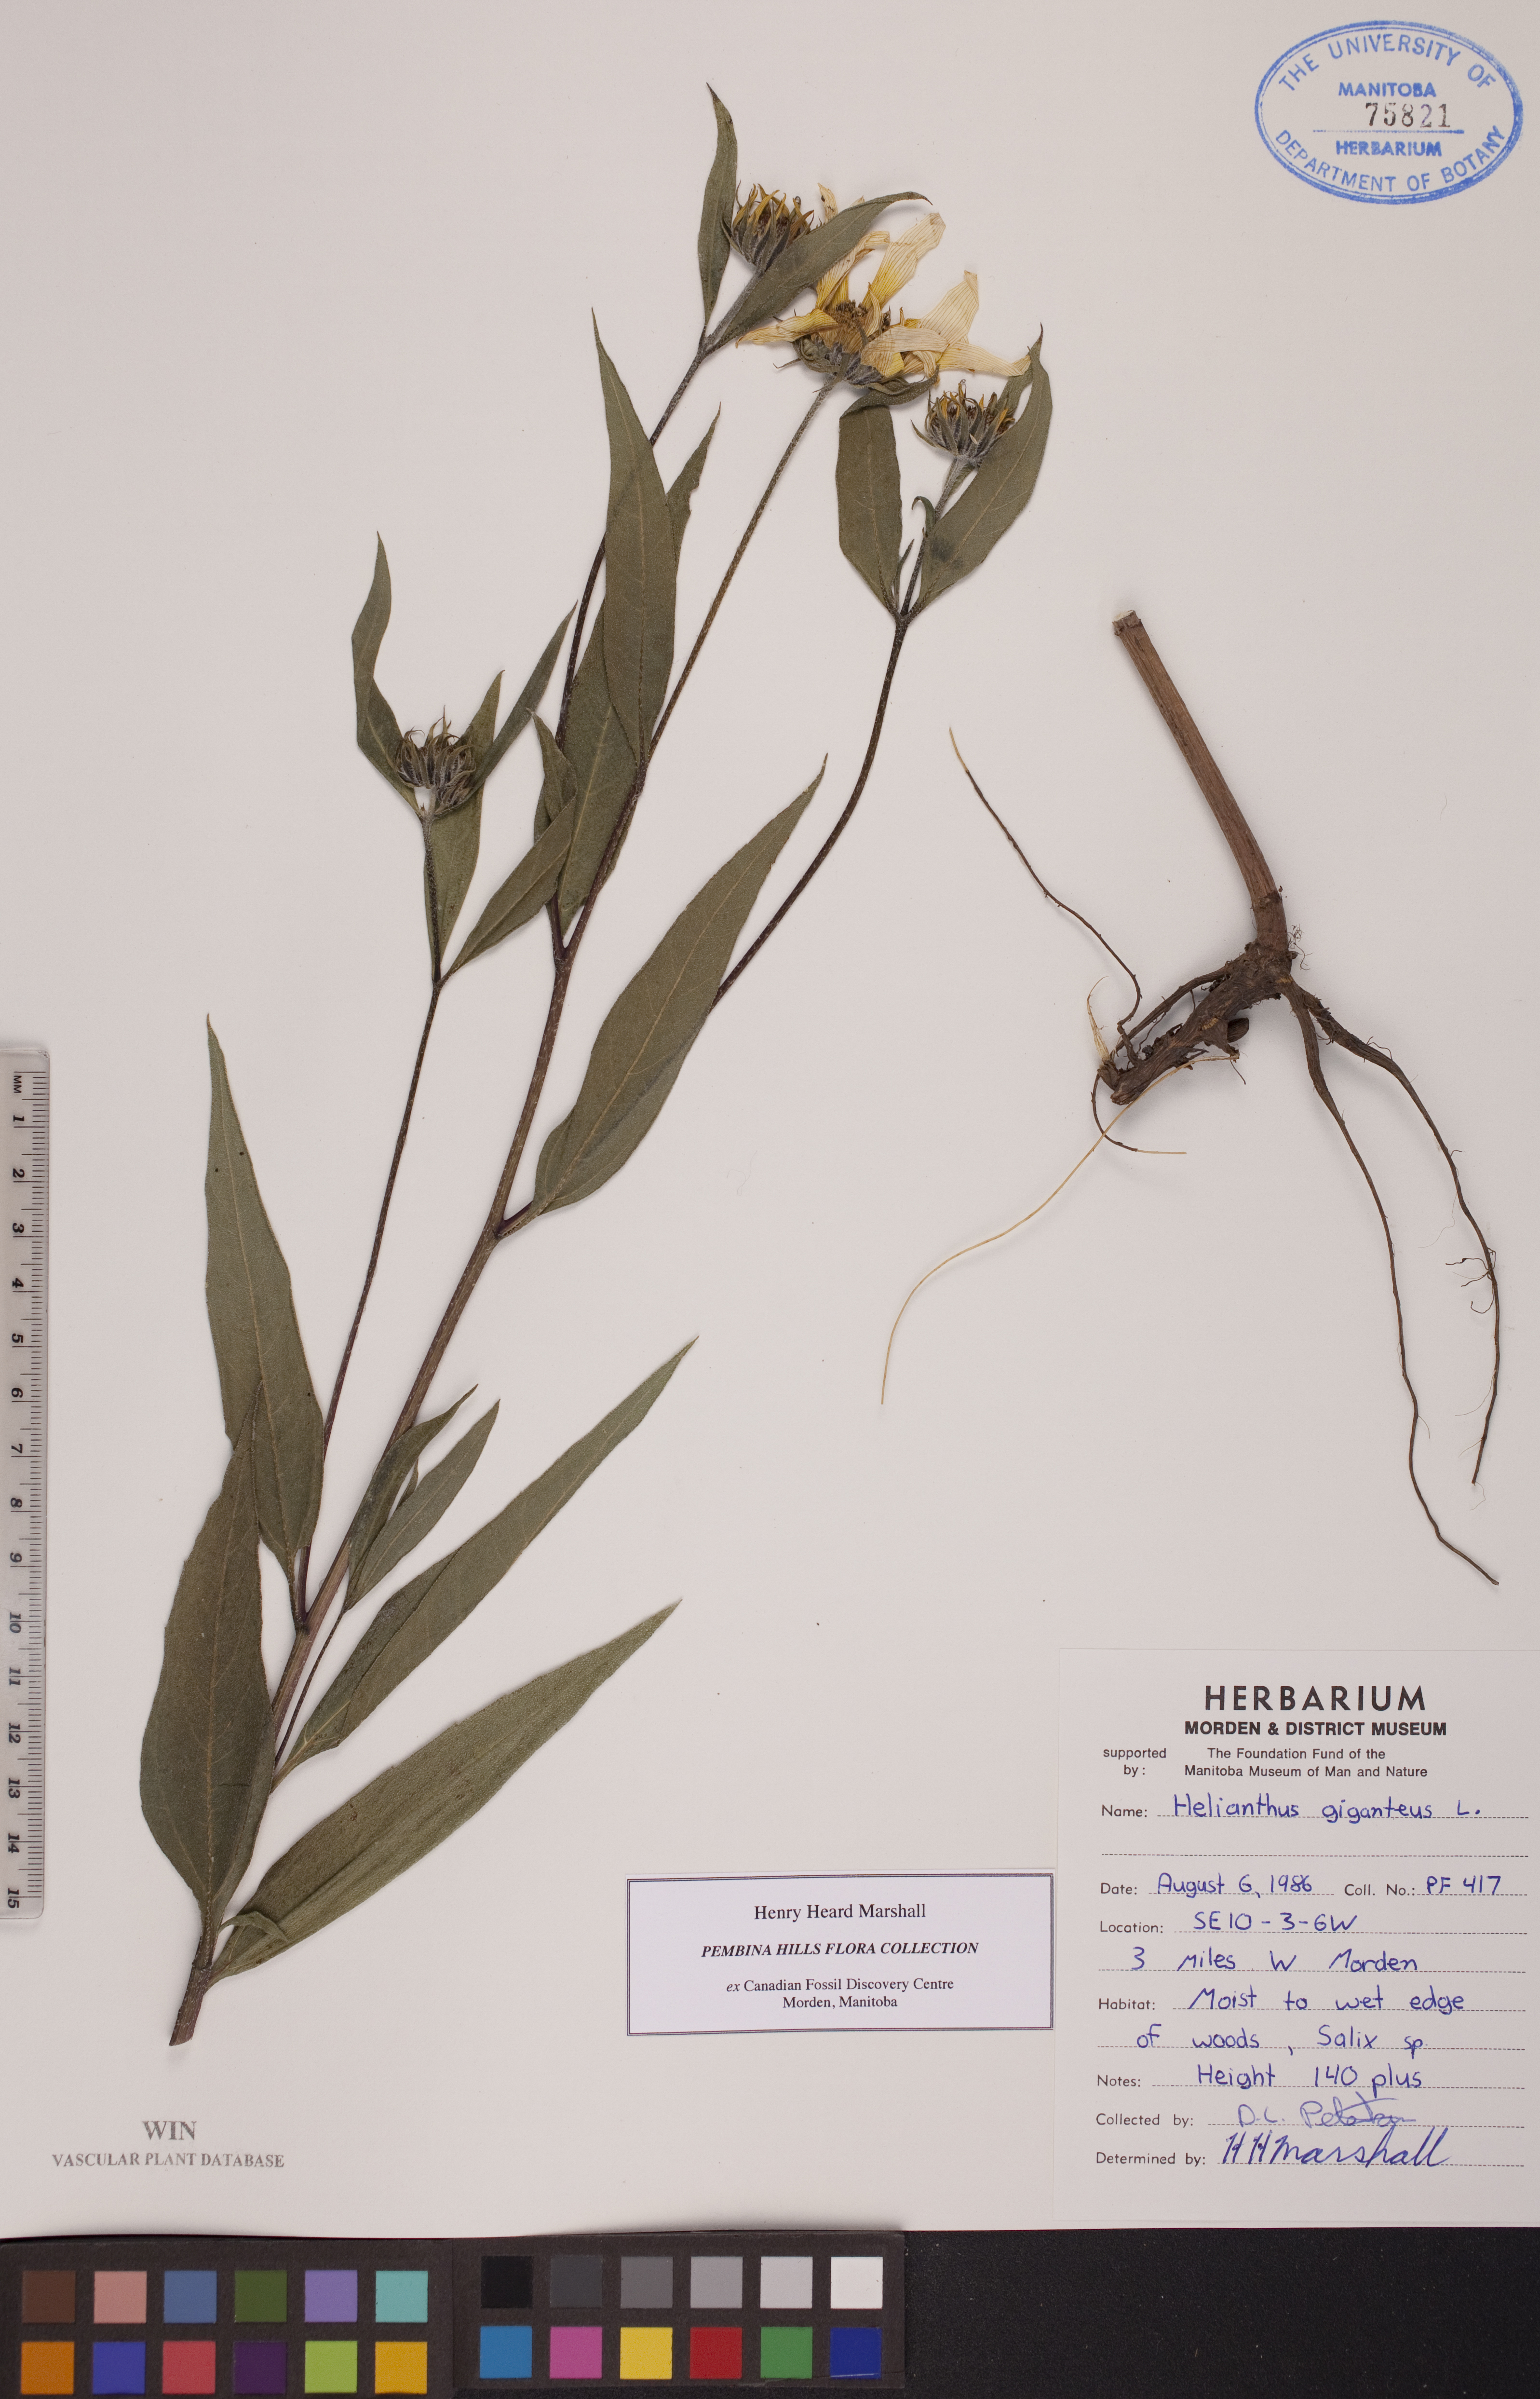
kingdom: Plantae
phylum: Tracheophyta
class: Magnoliopsida
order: Asterales
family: Asteraceae
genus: Helianthus
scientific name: Helianthus giganteus
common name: Giant sunflower
